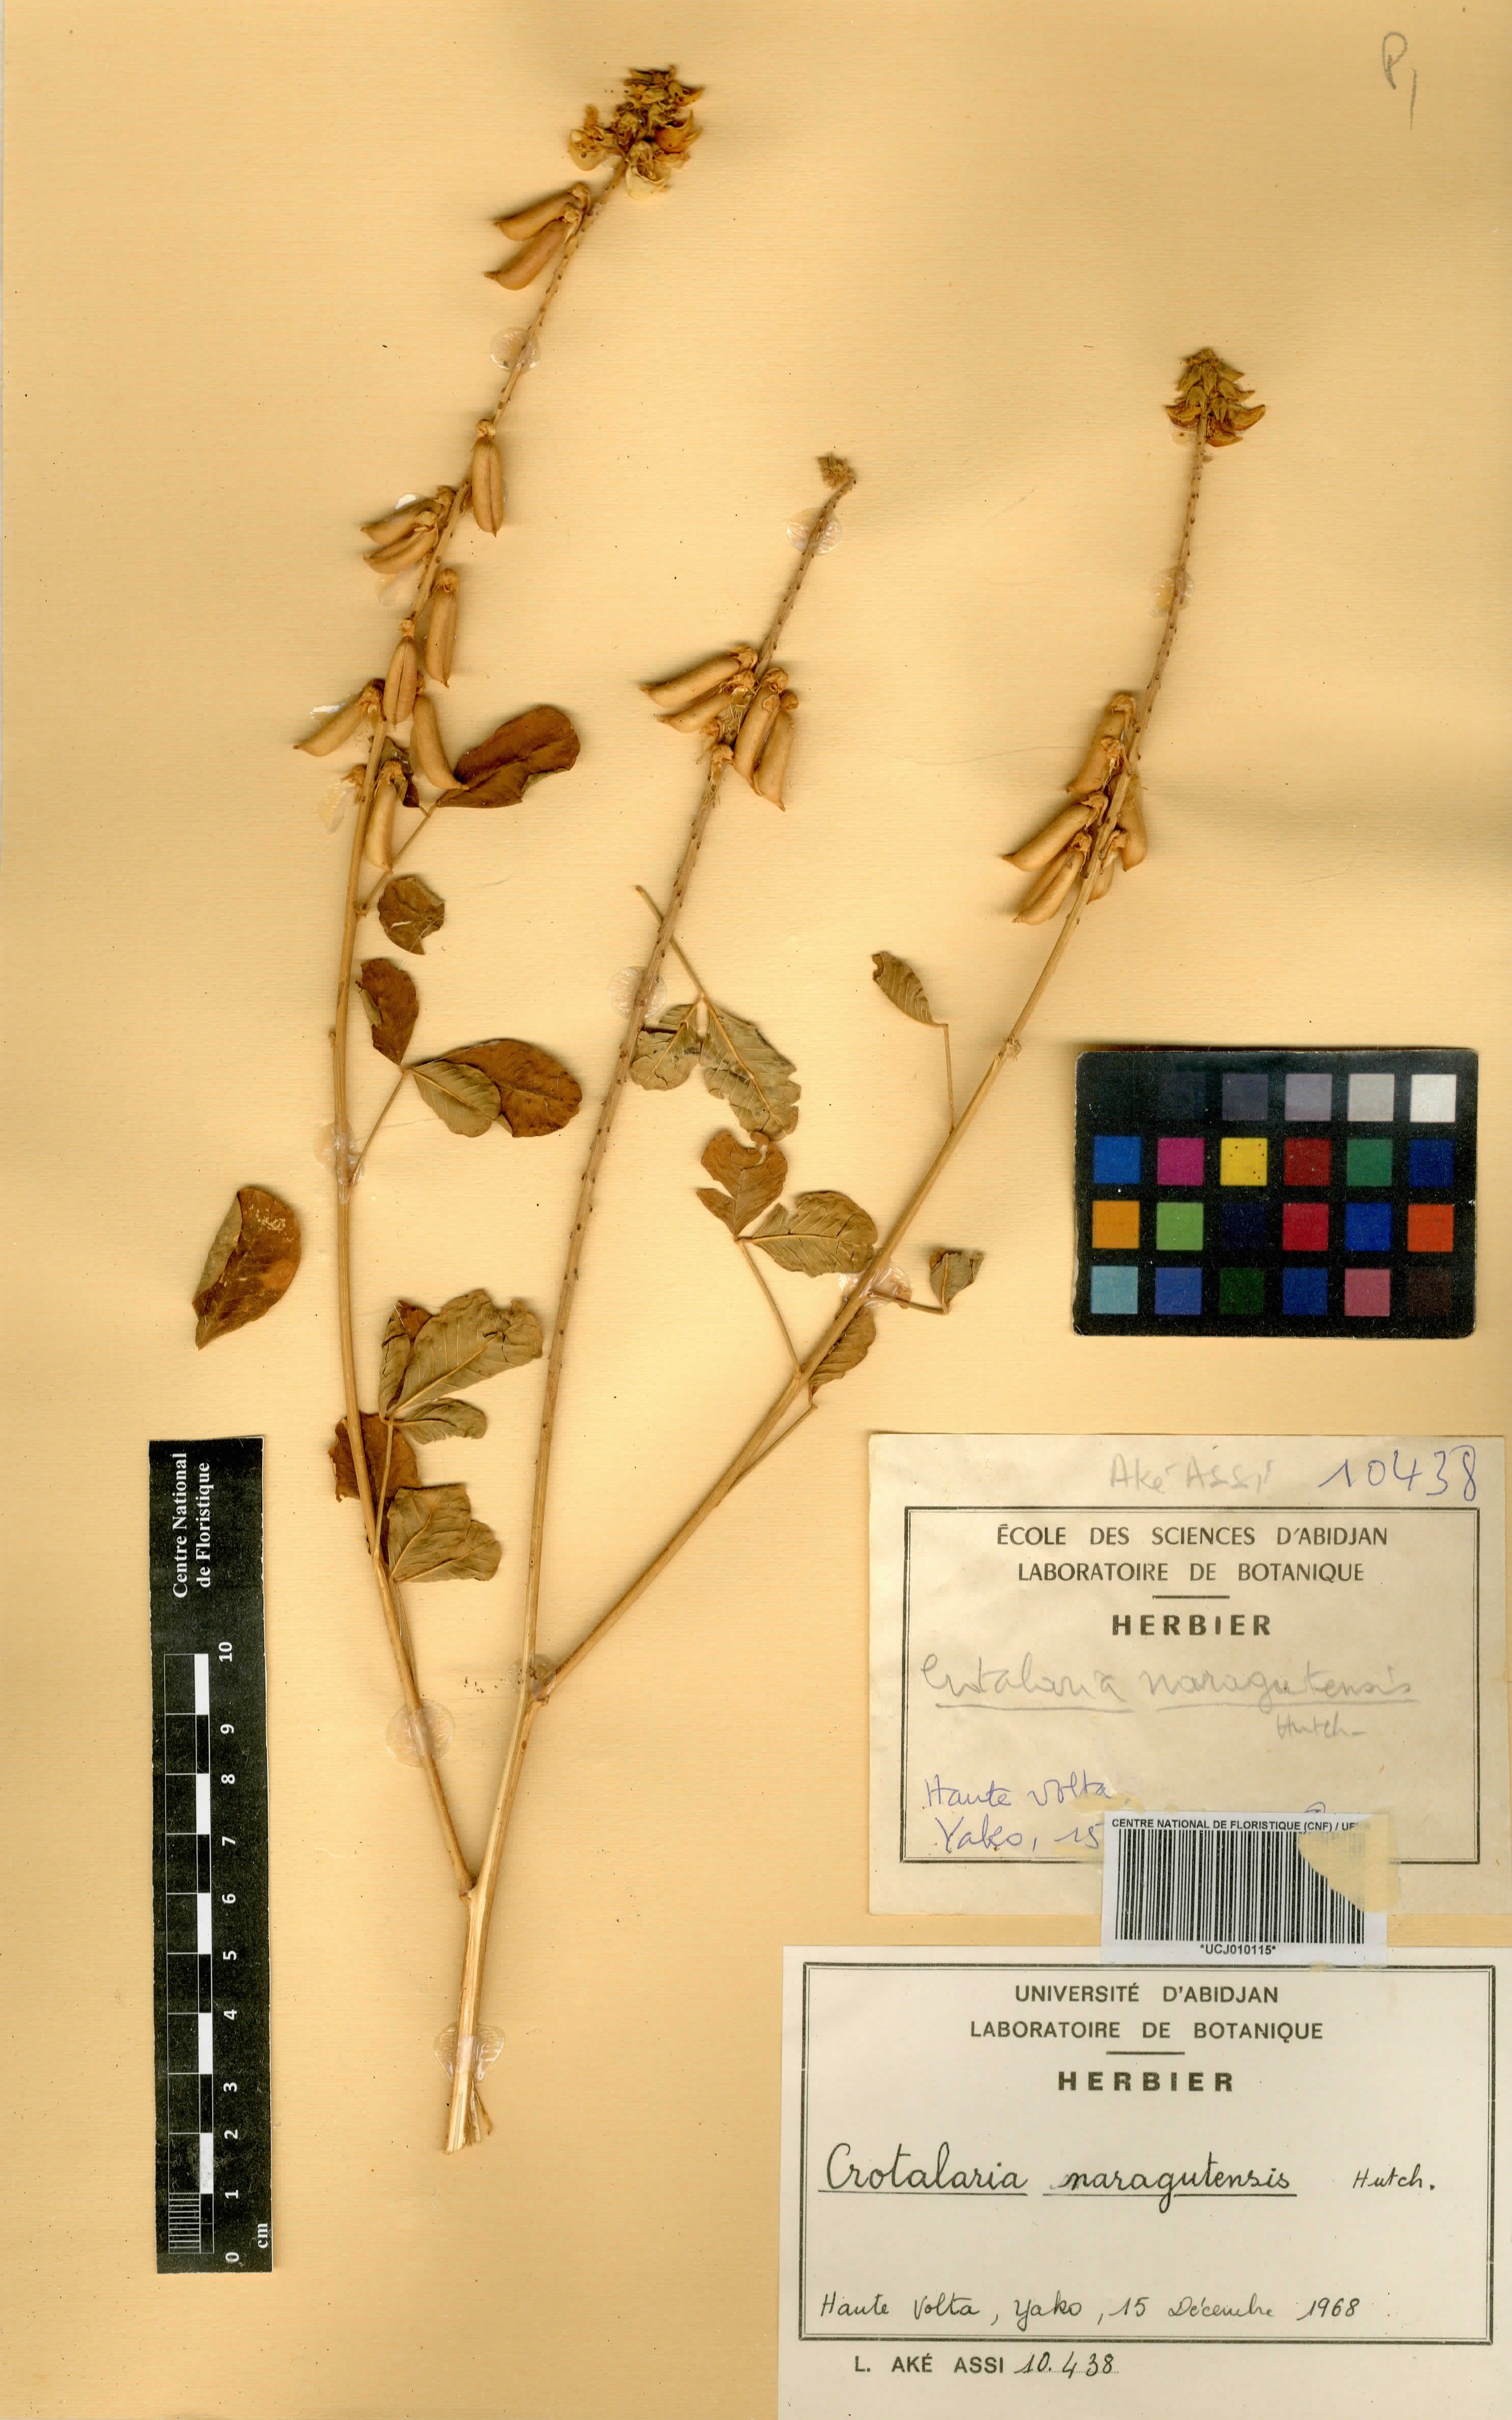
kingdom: Plantae
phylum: Tracheophyta
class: Magnoliopsida
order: Fabales
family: Fabaceae
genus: Crotalaria
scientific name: Crotalaria naragutensis
